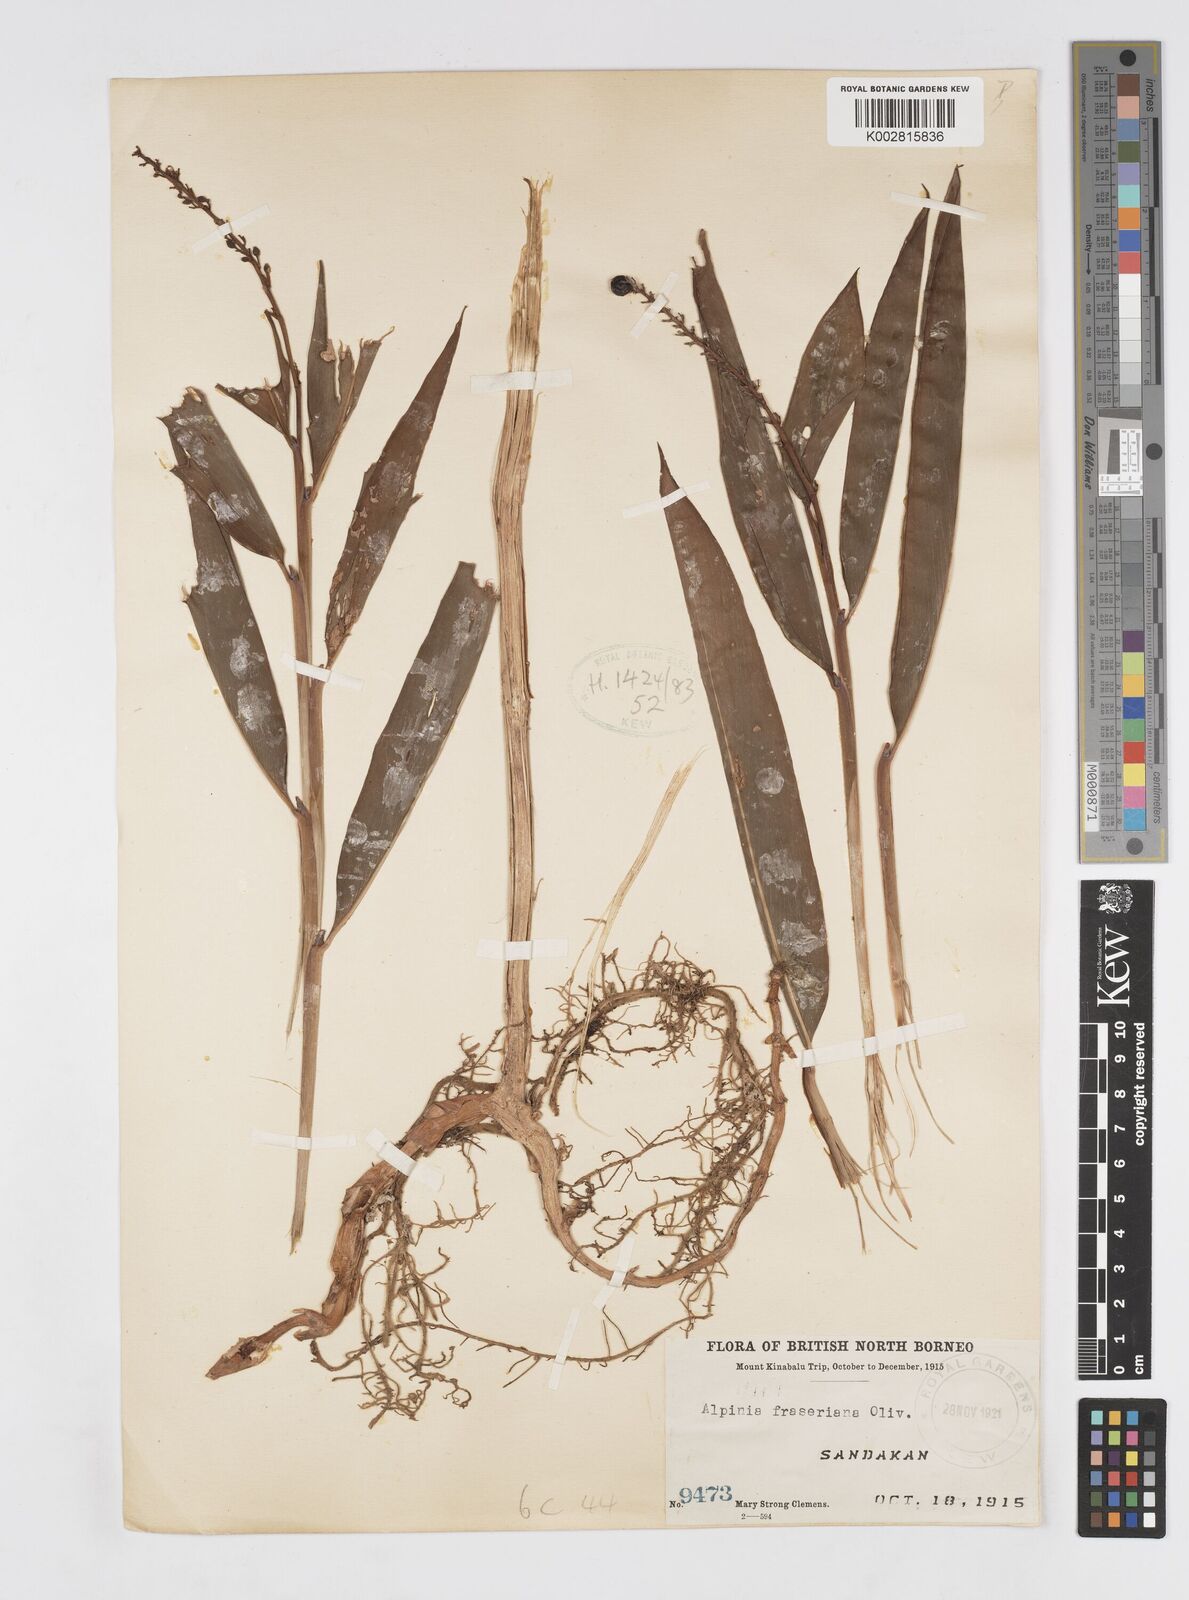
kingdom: Plantae
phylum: Tracheophyta
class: Liliopsida
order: Zingiberales
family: Zingiberaceae
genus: Alpinia
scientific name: Alpinia aquatica
